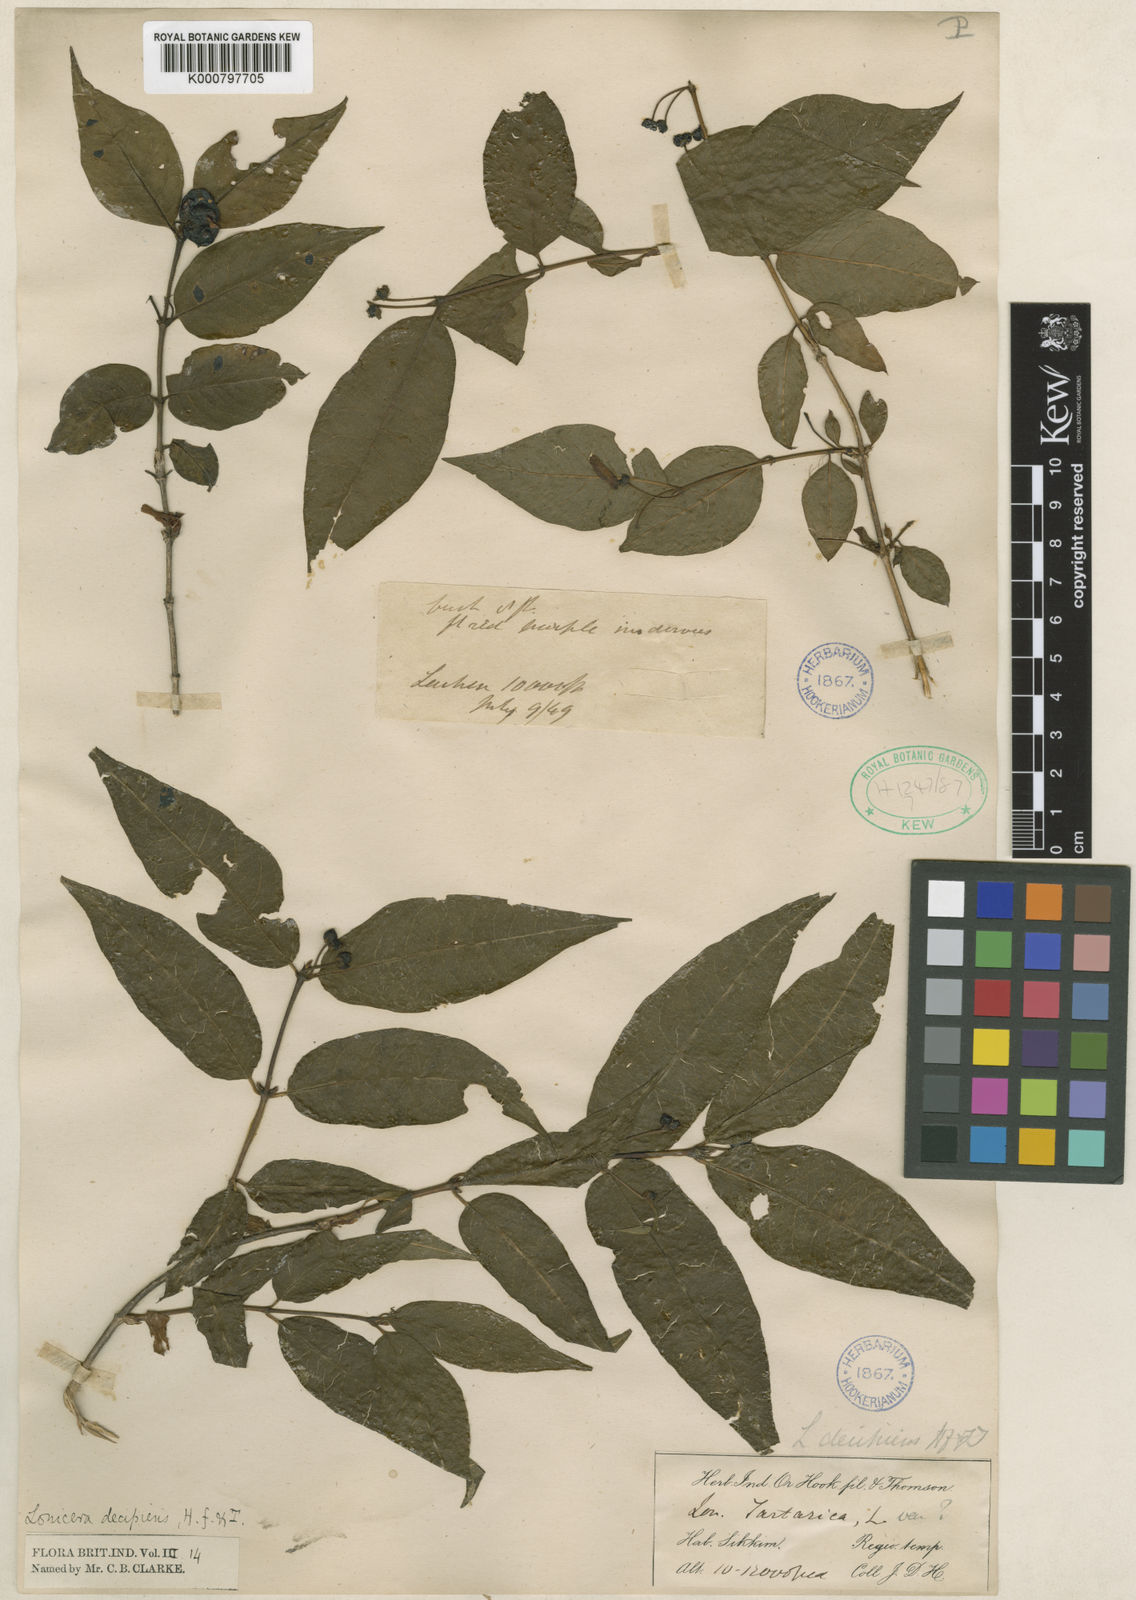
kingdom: Plantae
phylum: Tracheophyta
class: Magnoliopsida
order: Dipsacales
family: Caprifoliaceae
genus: Lonicera
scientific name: Lonicera lanceolata
